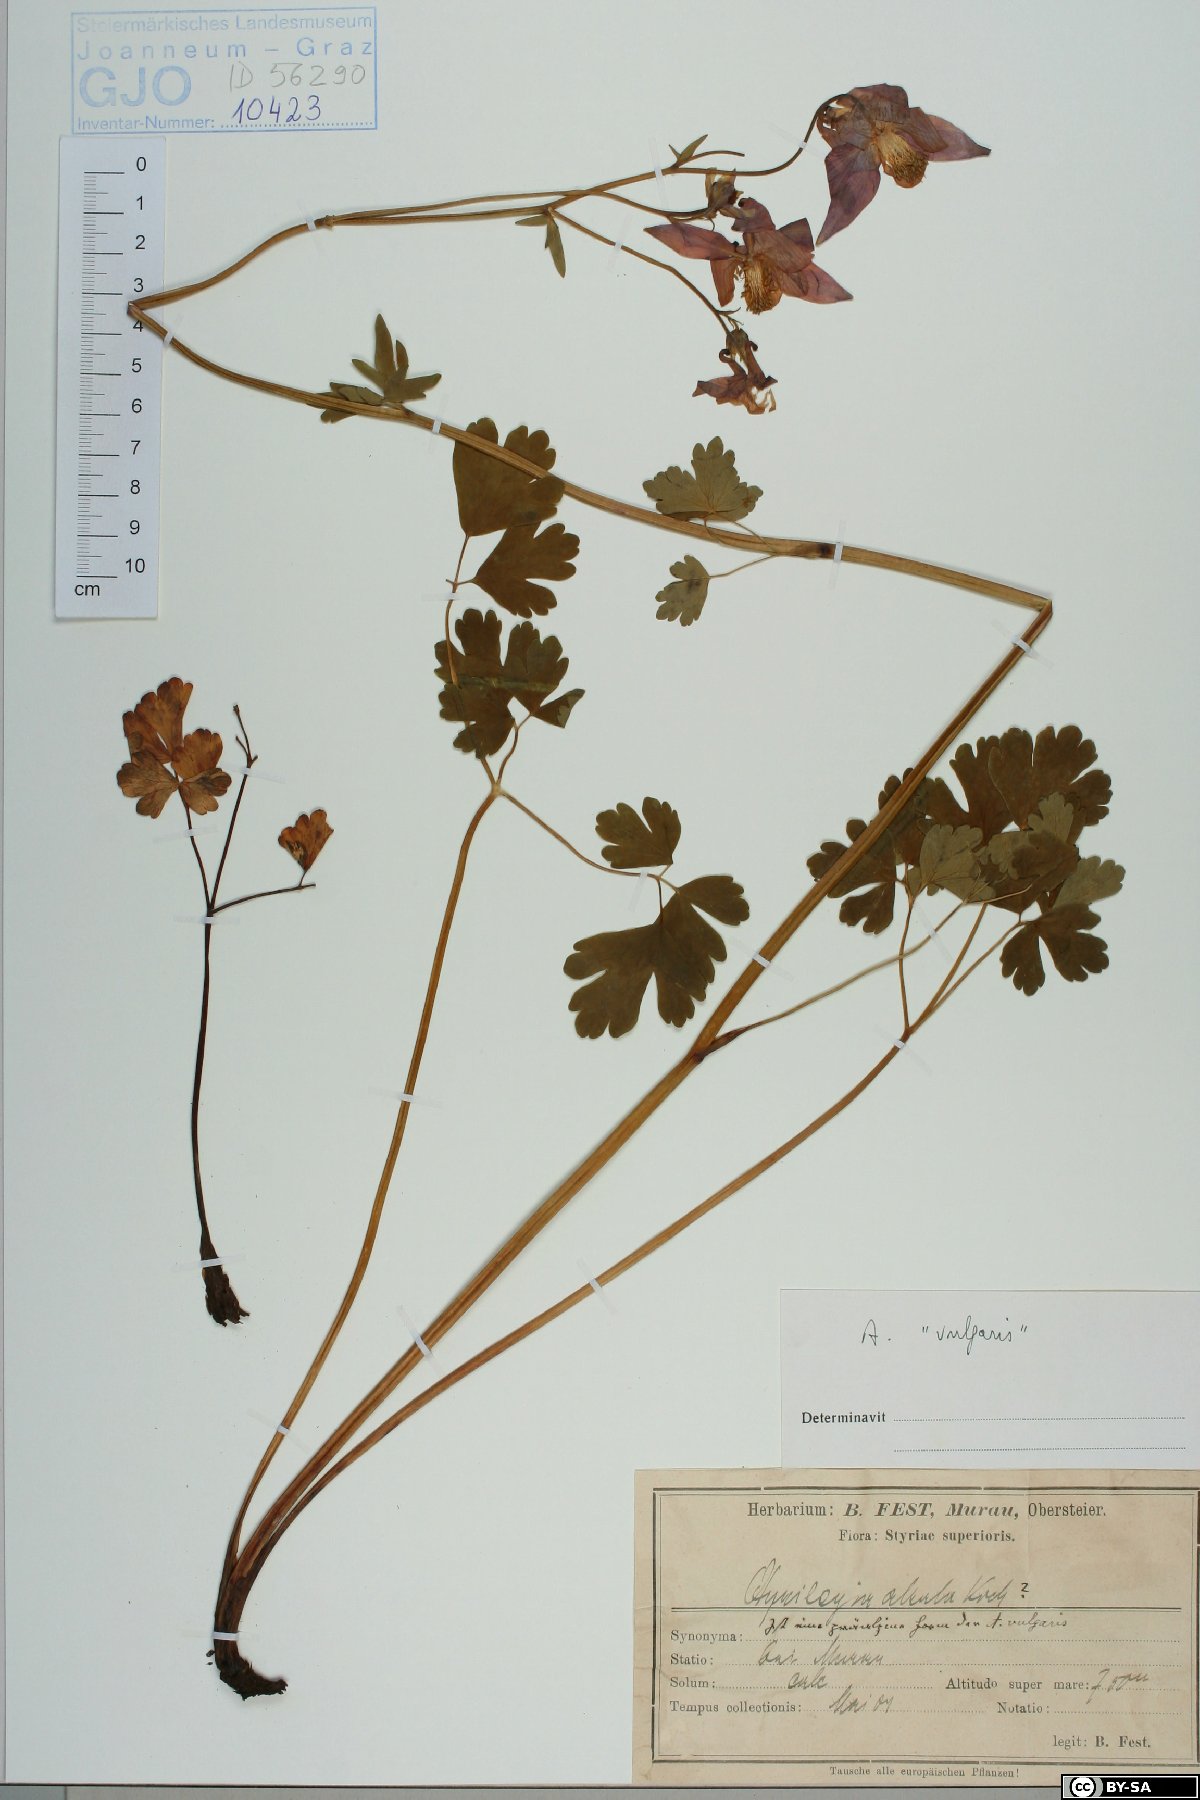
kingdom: Plantae
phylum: Tracheophyta
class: Magnoliopsida
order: Ranunculales
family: Ranunculaceae
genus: Aquilegia
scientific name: Aquilegia vulgaris
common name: Columbine
